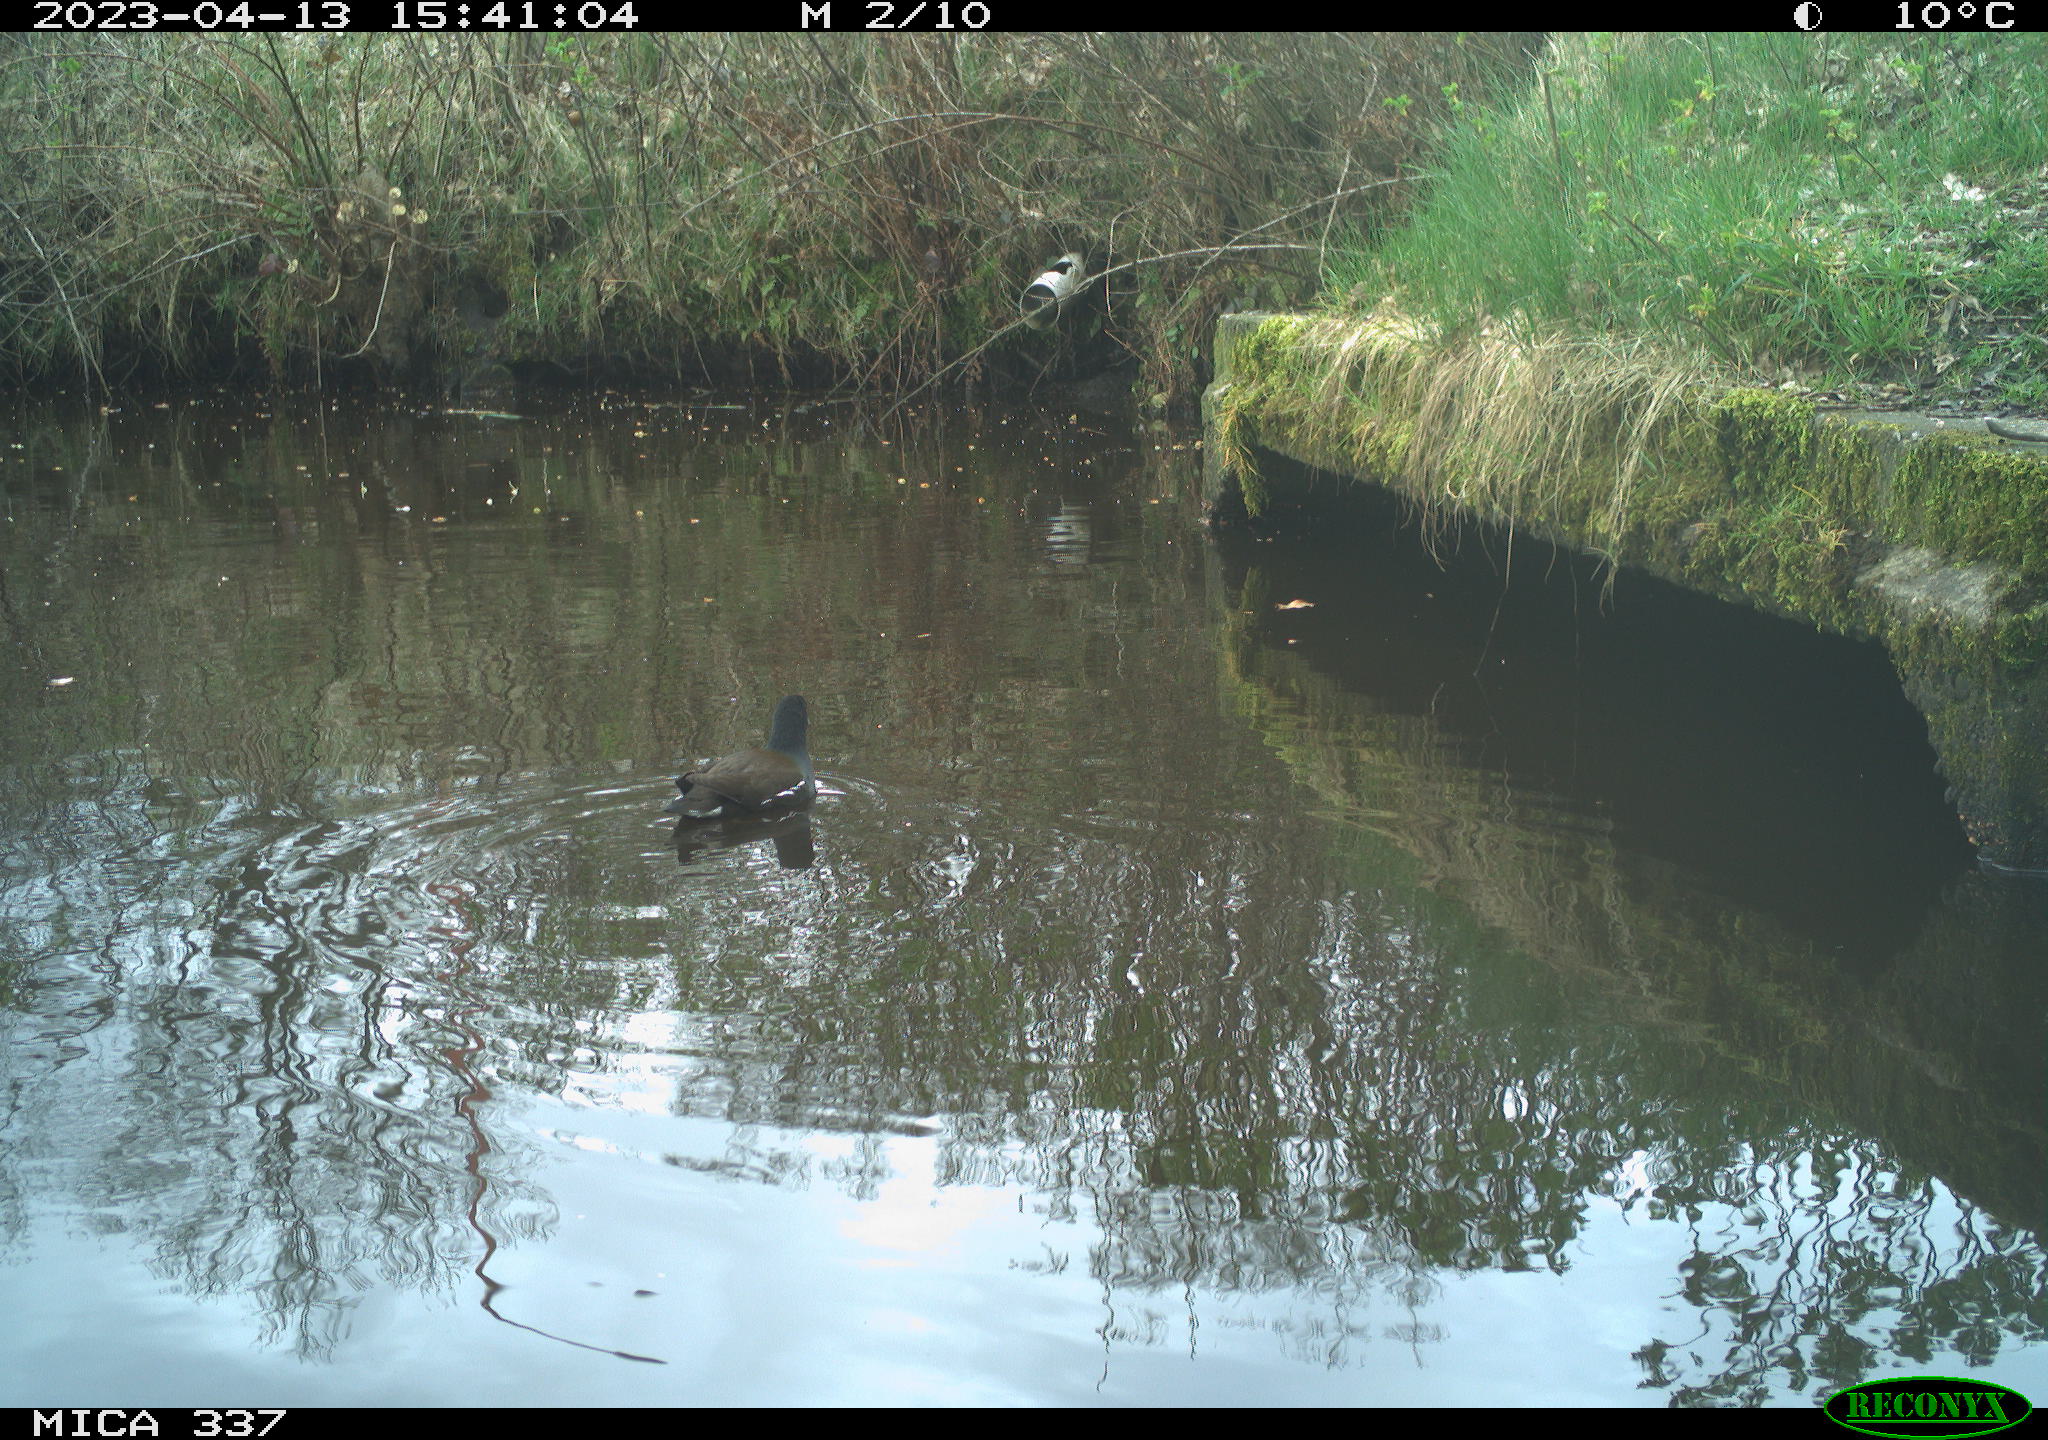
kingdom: Animalia
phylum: Chordata
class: Aves
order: Gruiformes
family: Rallidae
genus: Gallinula
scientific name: Gallinula chloropus
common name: Common moorhen
